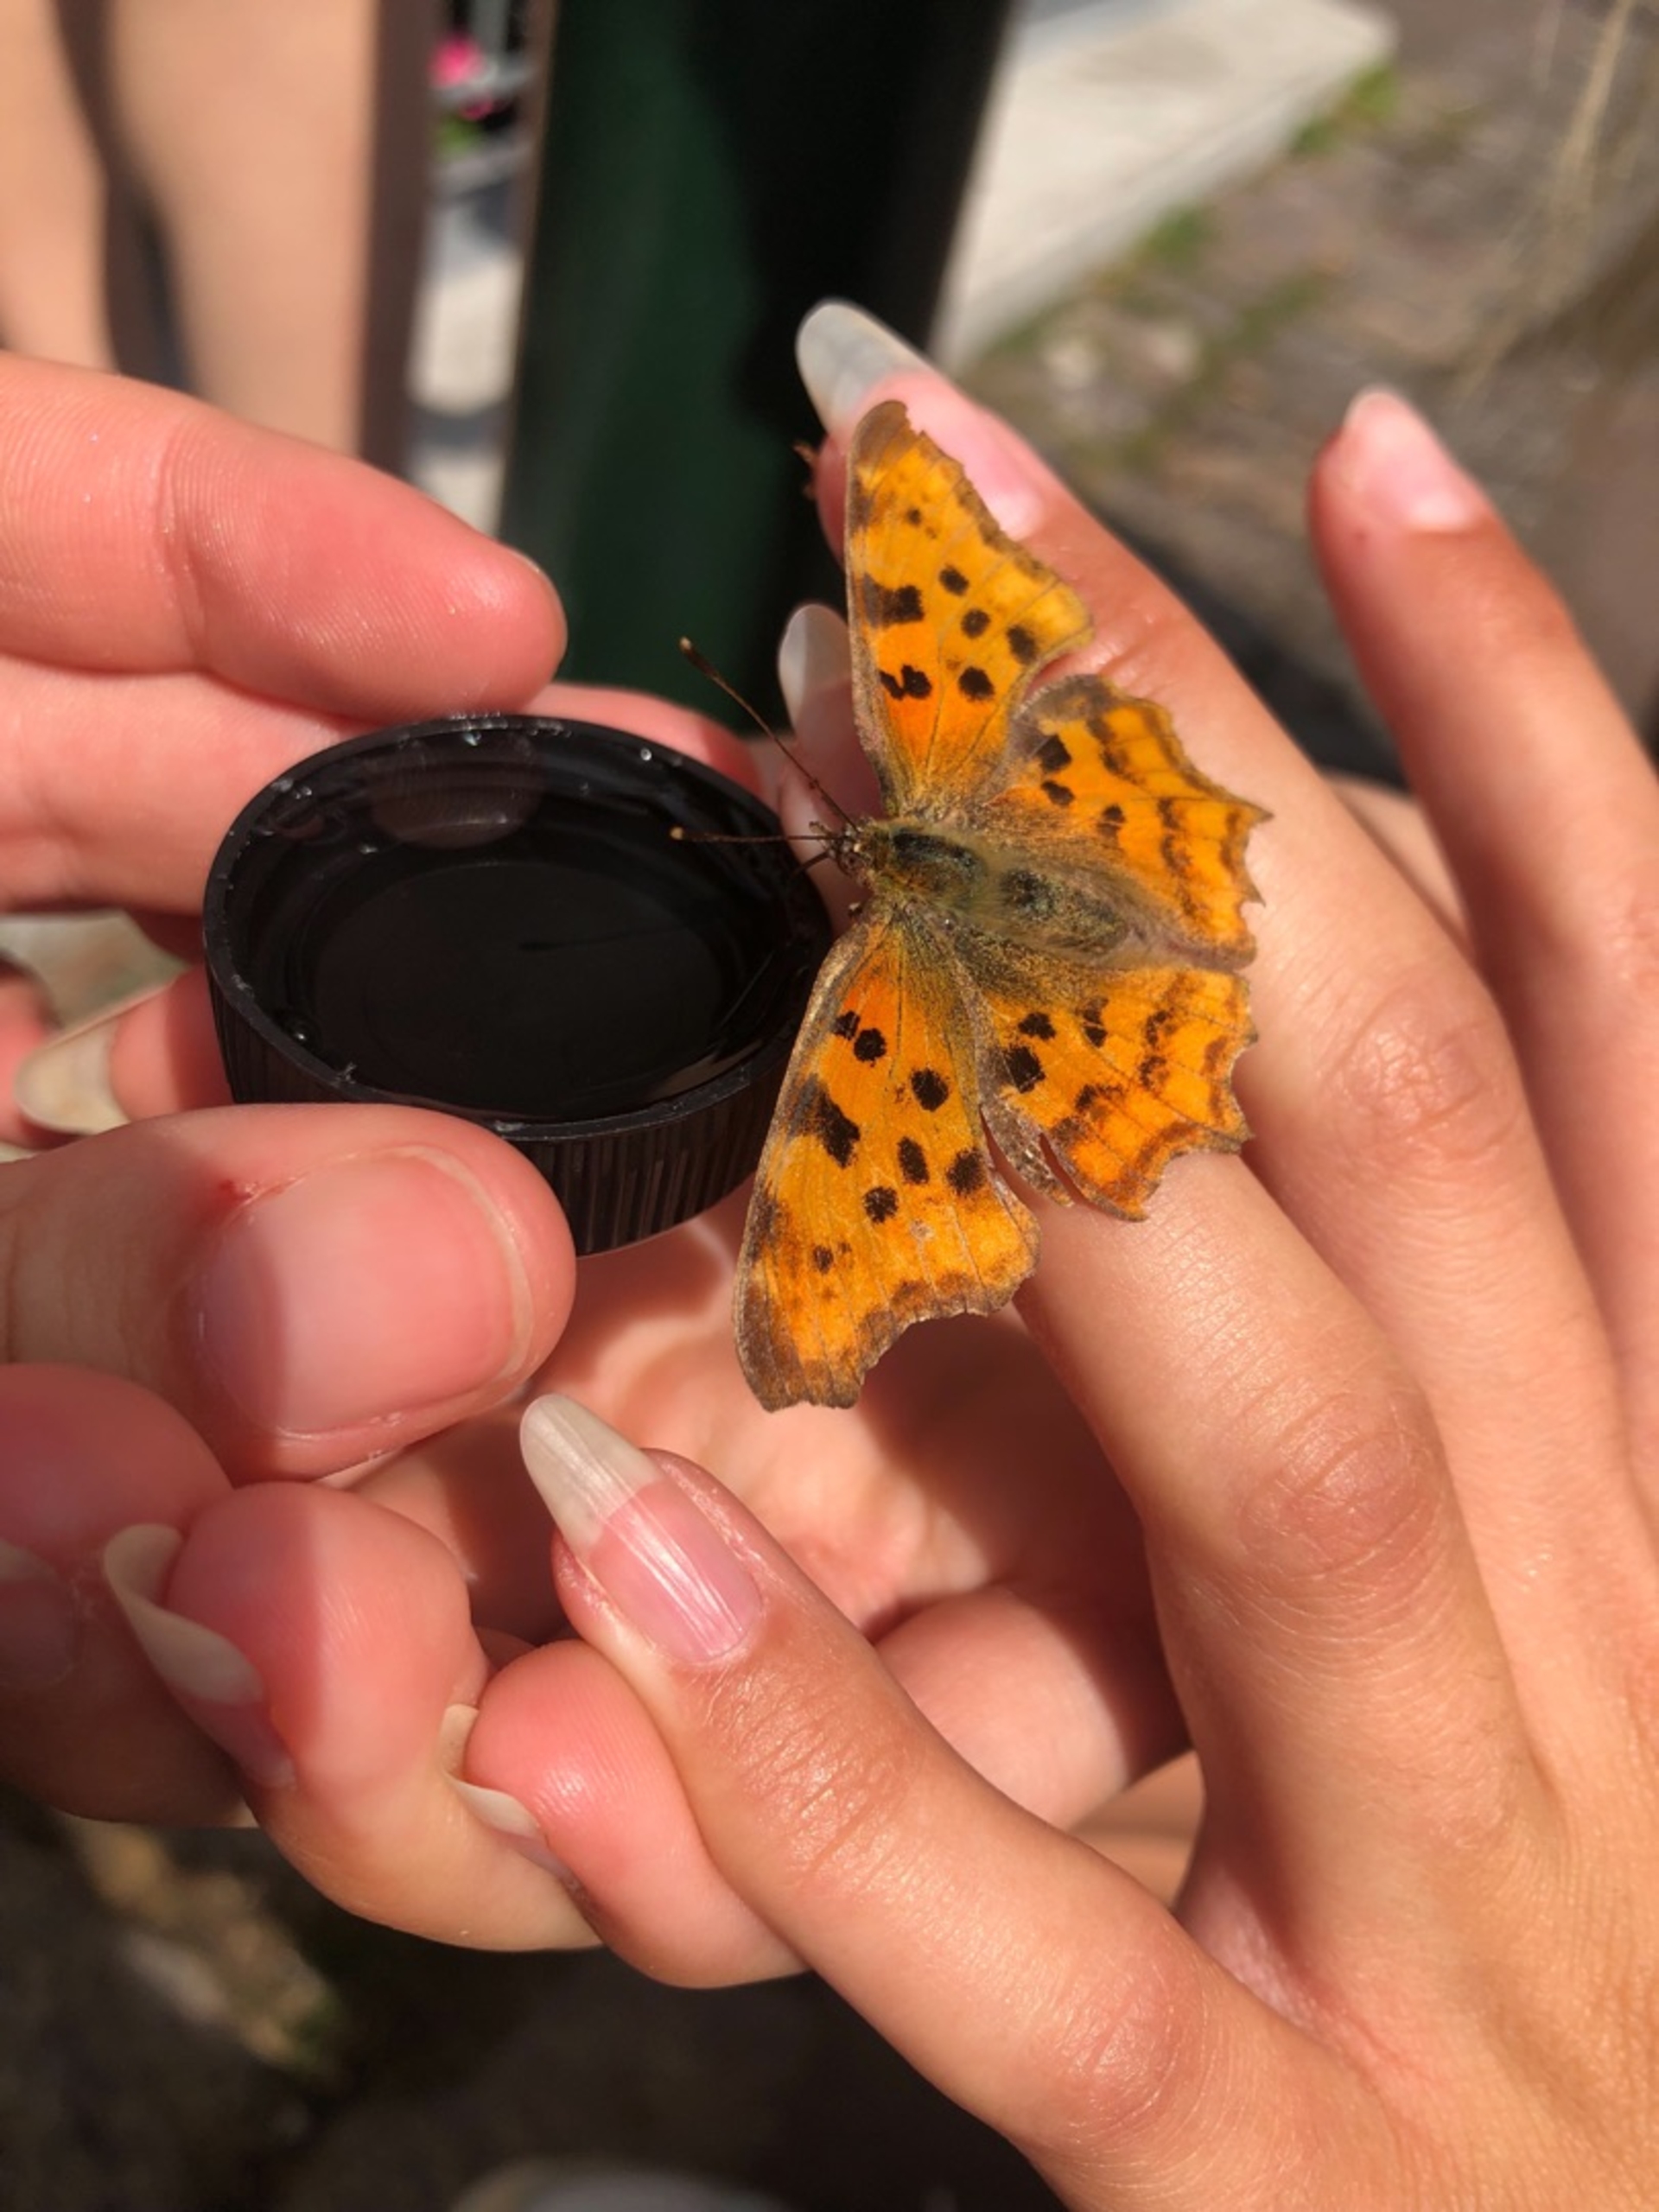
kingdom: Animalia
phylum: Arthropoda
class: Insecta
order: Lepidoptera
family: Nymphalidae
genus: Polygonia
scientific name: Polygonia c-album
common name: Det hvide C
